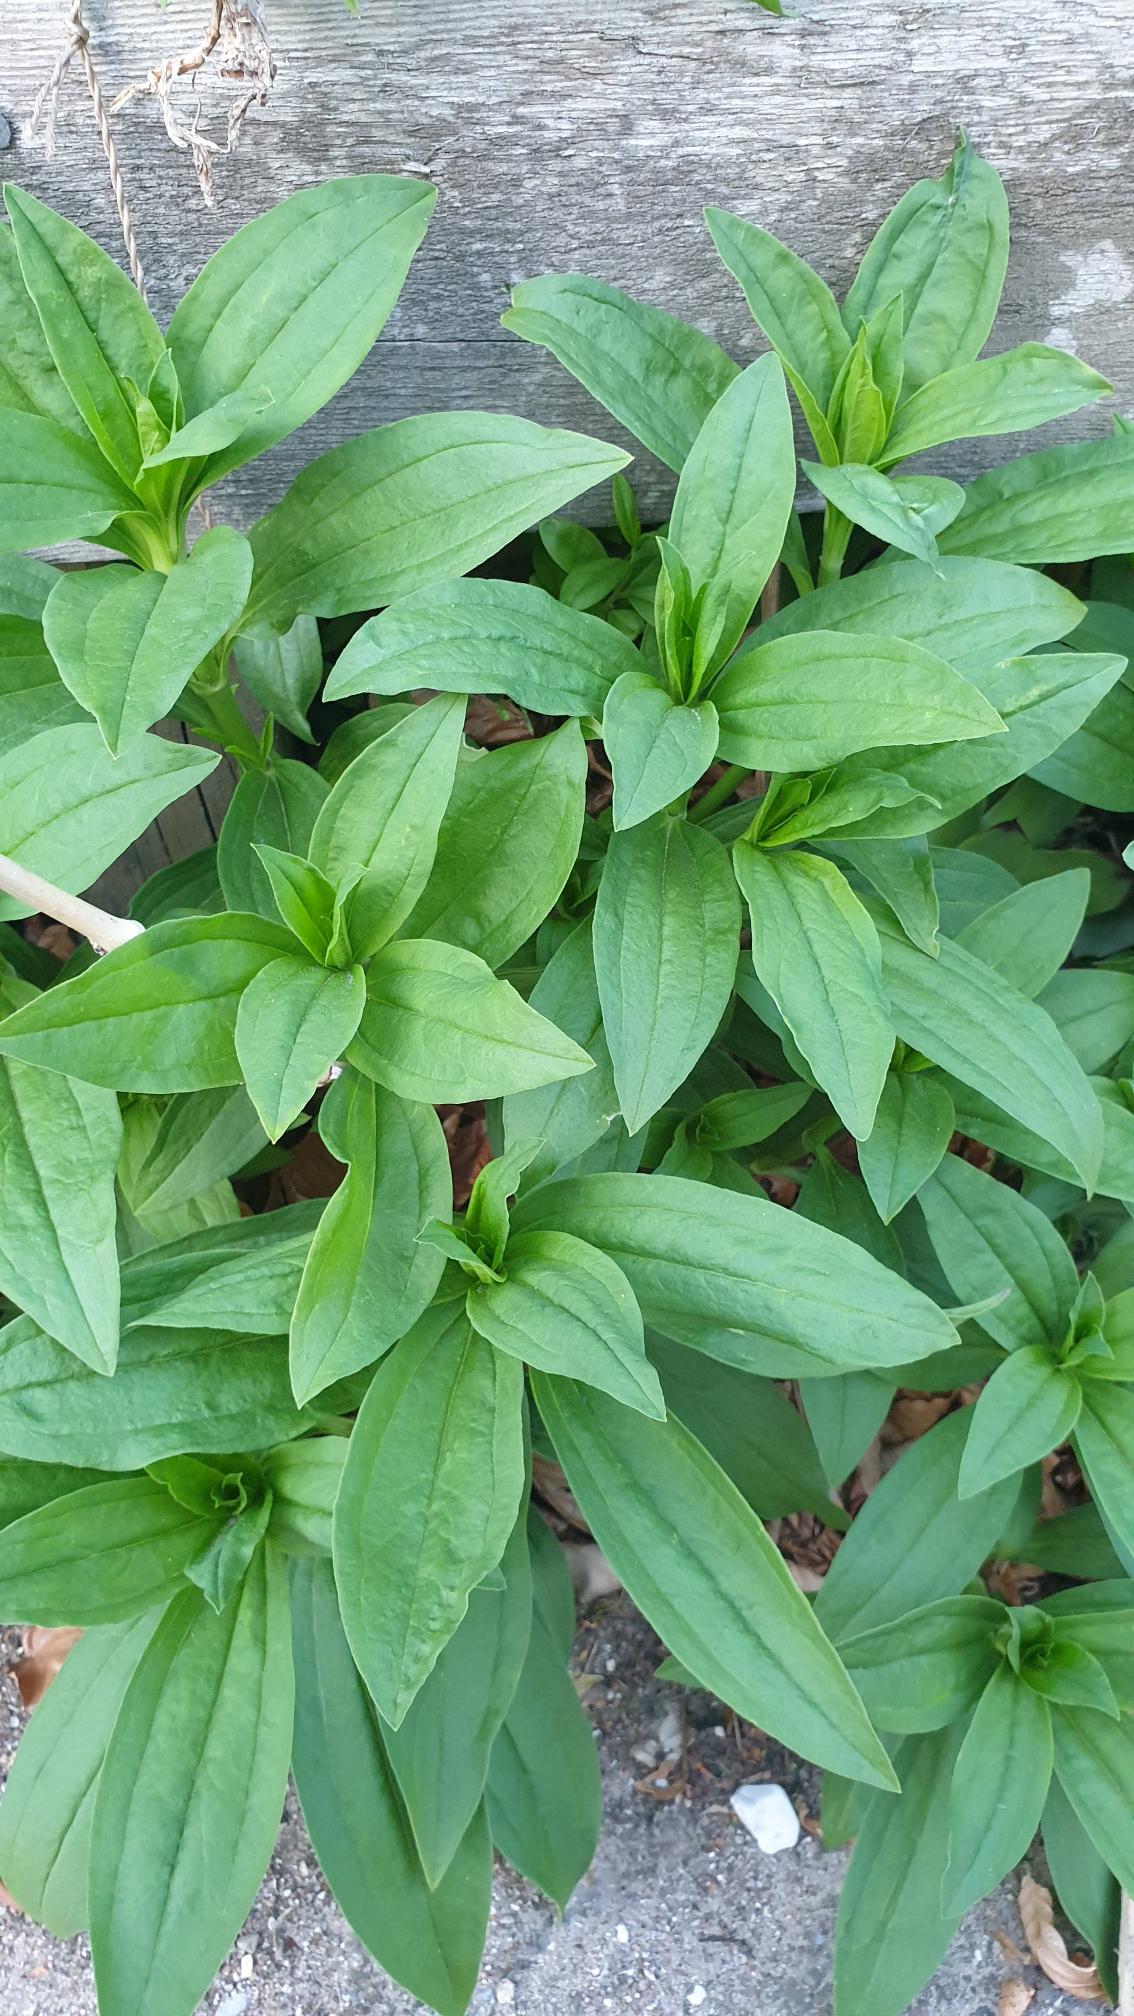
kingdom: Plantae
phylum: Tracheophyta
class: Magnoliopsida
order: Caryophyllales
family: Caryophyllaceae
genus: Saponaria
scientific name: Saponaria officinalis
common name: Sæbeurt
